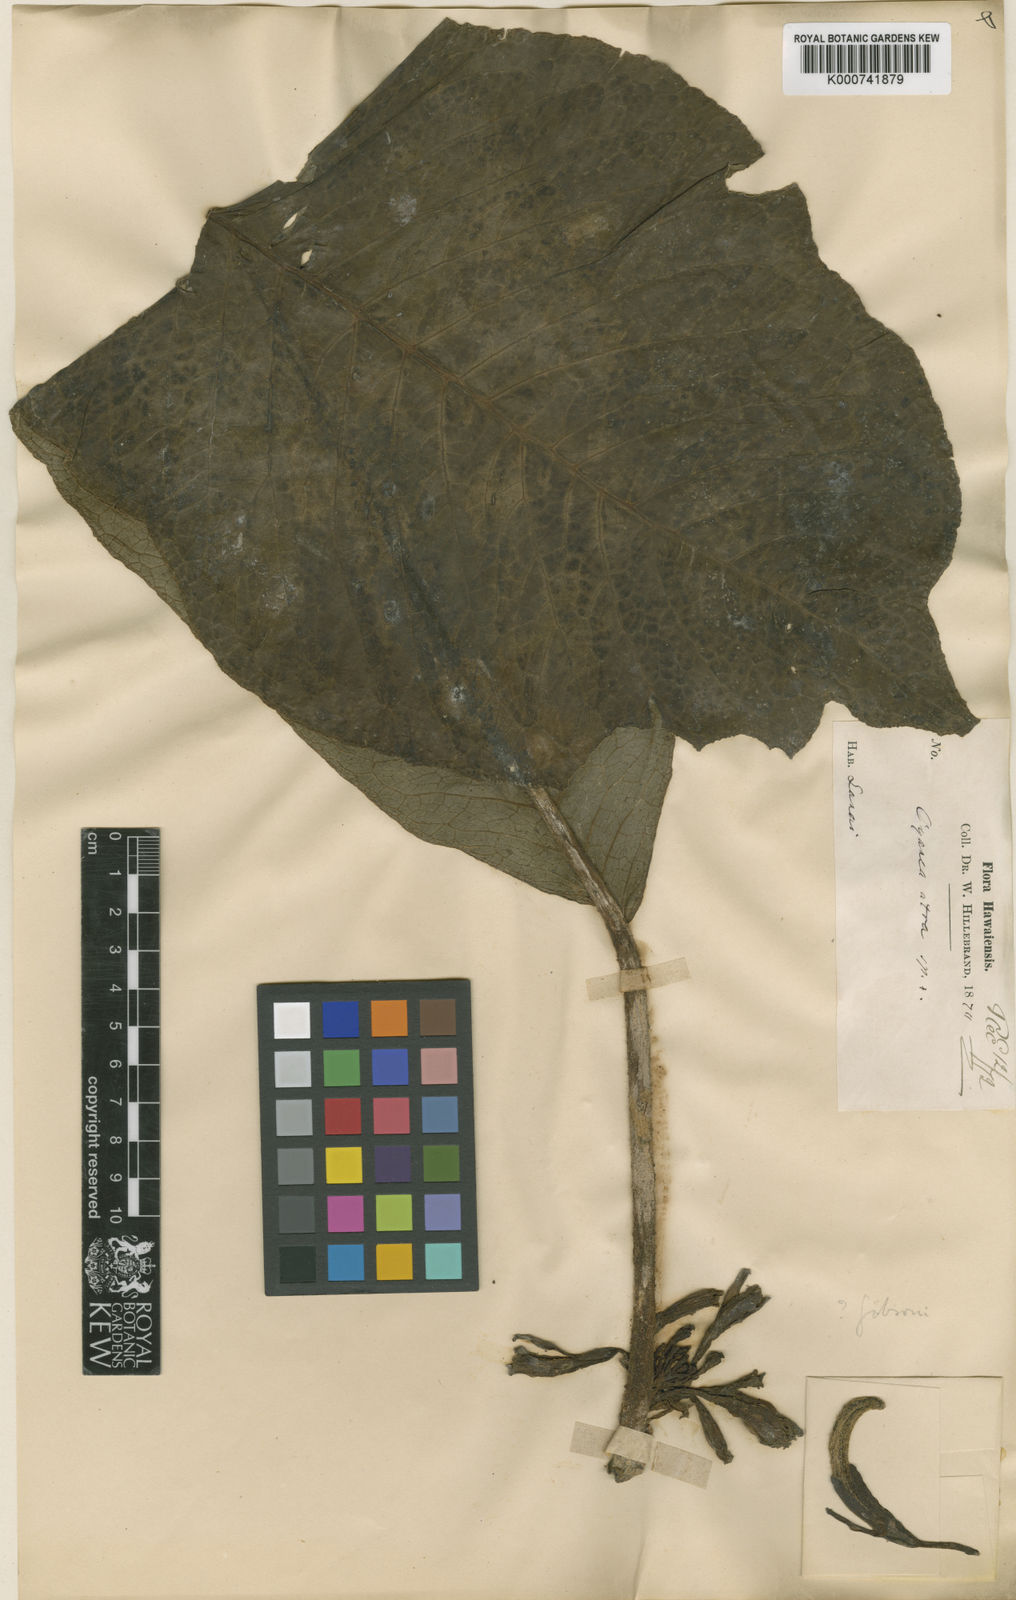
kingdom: Plantae
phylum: Tracheophyta
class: Magnoliopsida
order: Asterales
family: Campanulaceae
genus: Cyanea
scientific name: Cyanea gibsonii
